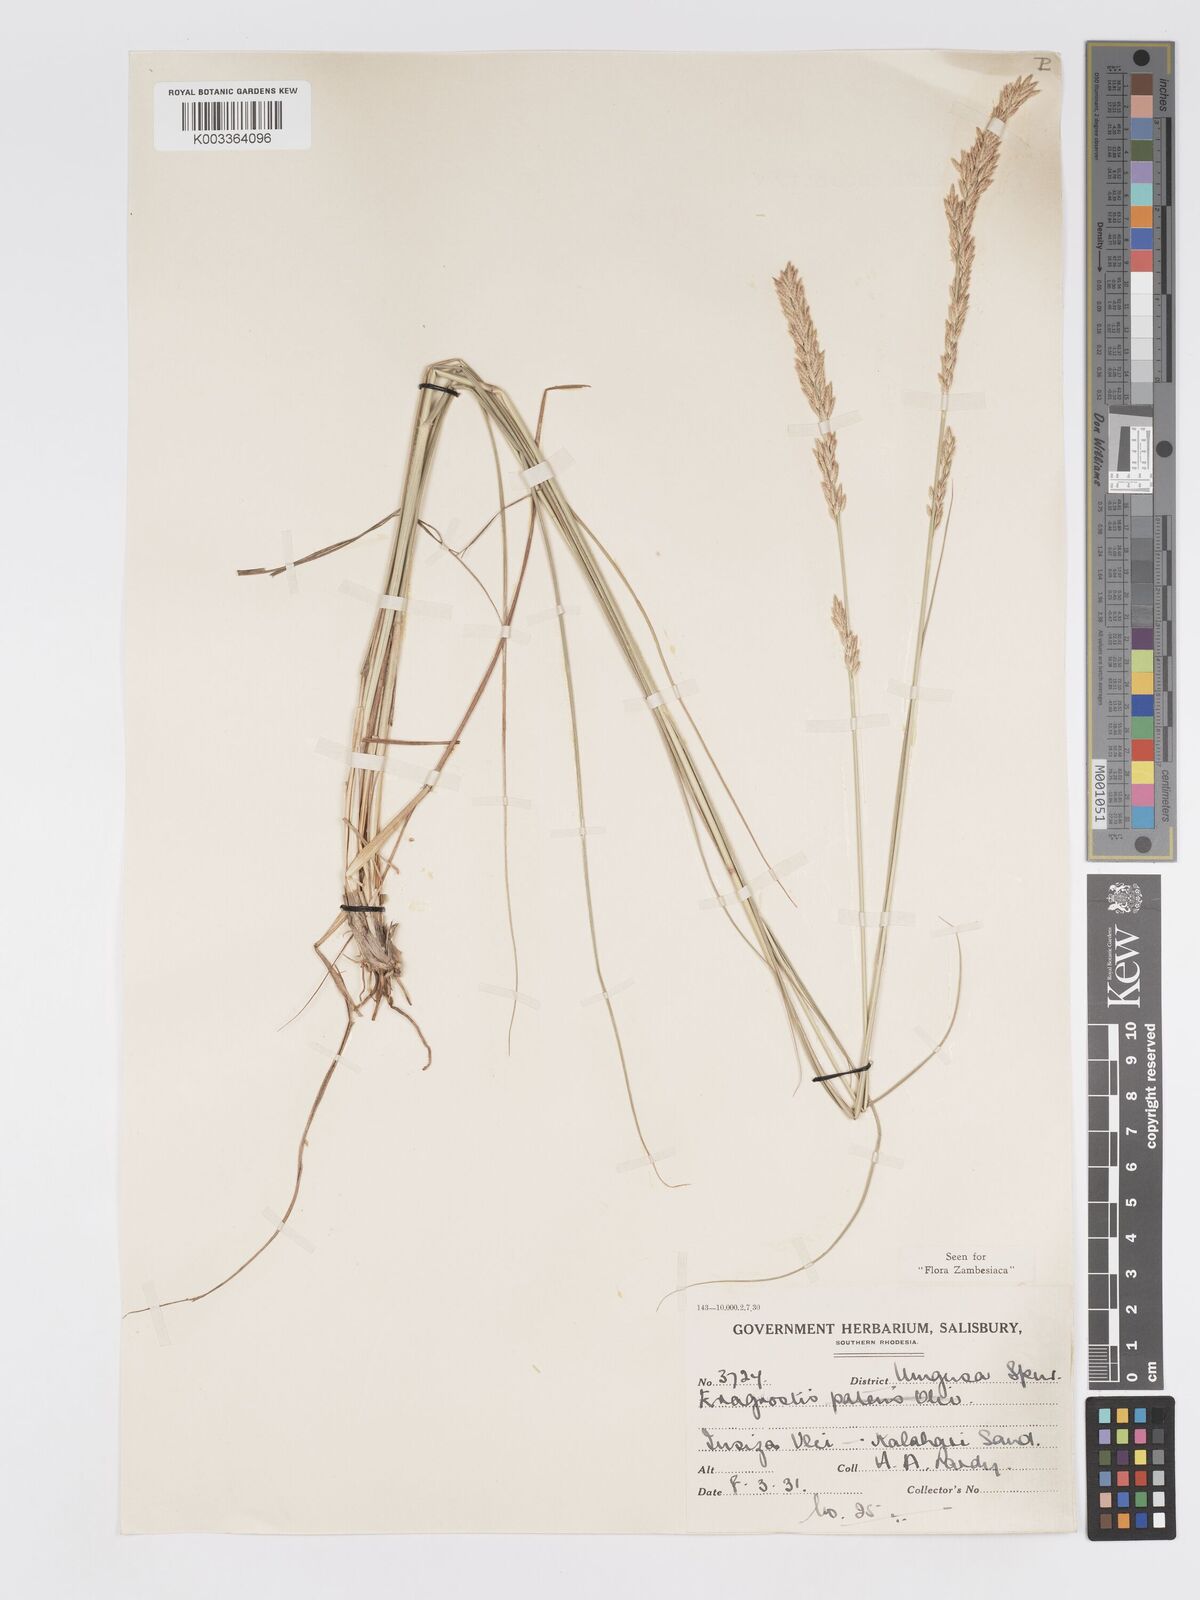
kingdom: Plantae
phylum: Tracheophyta
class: Liliopsida
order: Poales
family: Poaceae
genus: Eragrostis
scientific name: Eragrostis chapelieri
